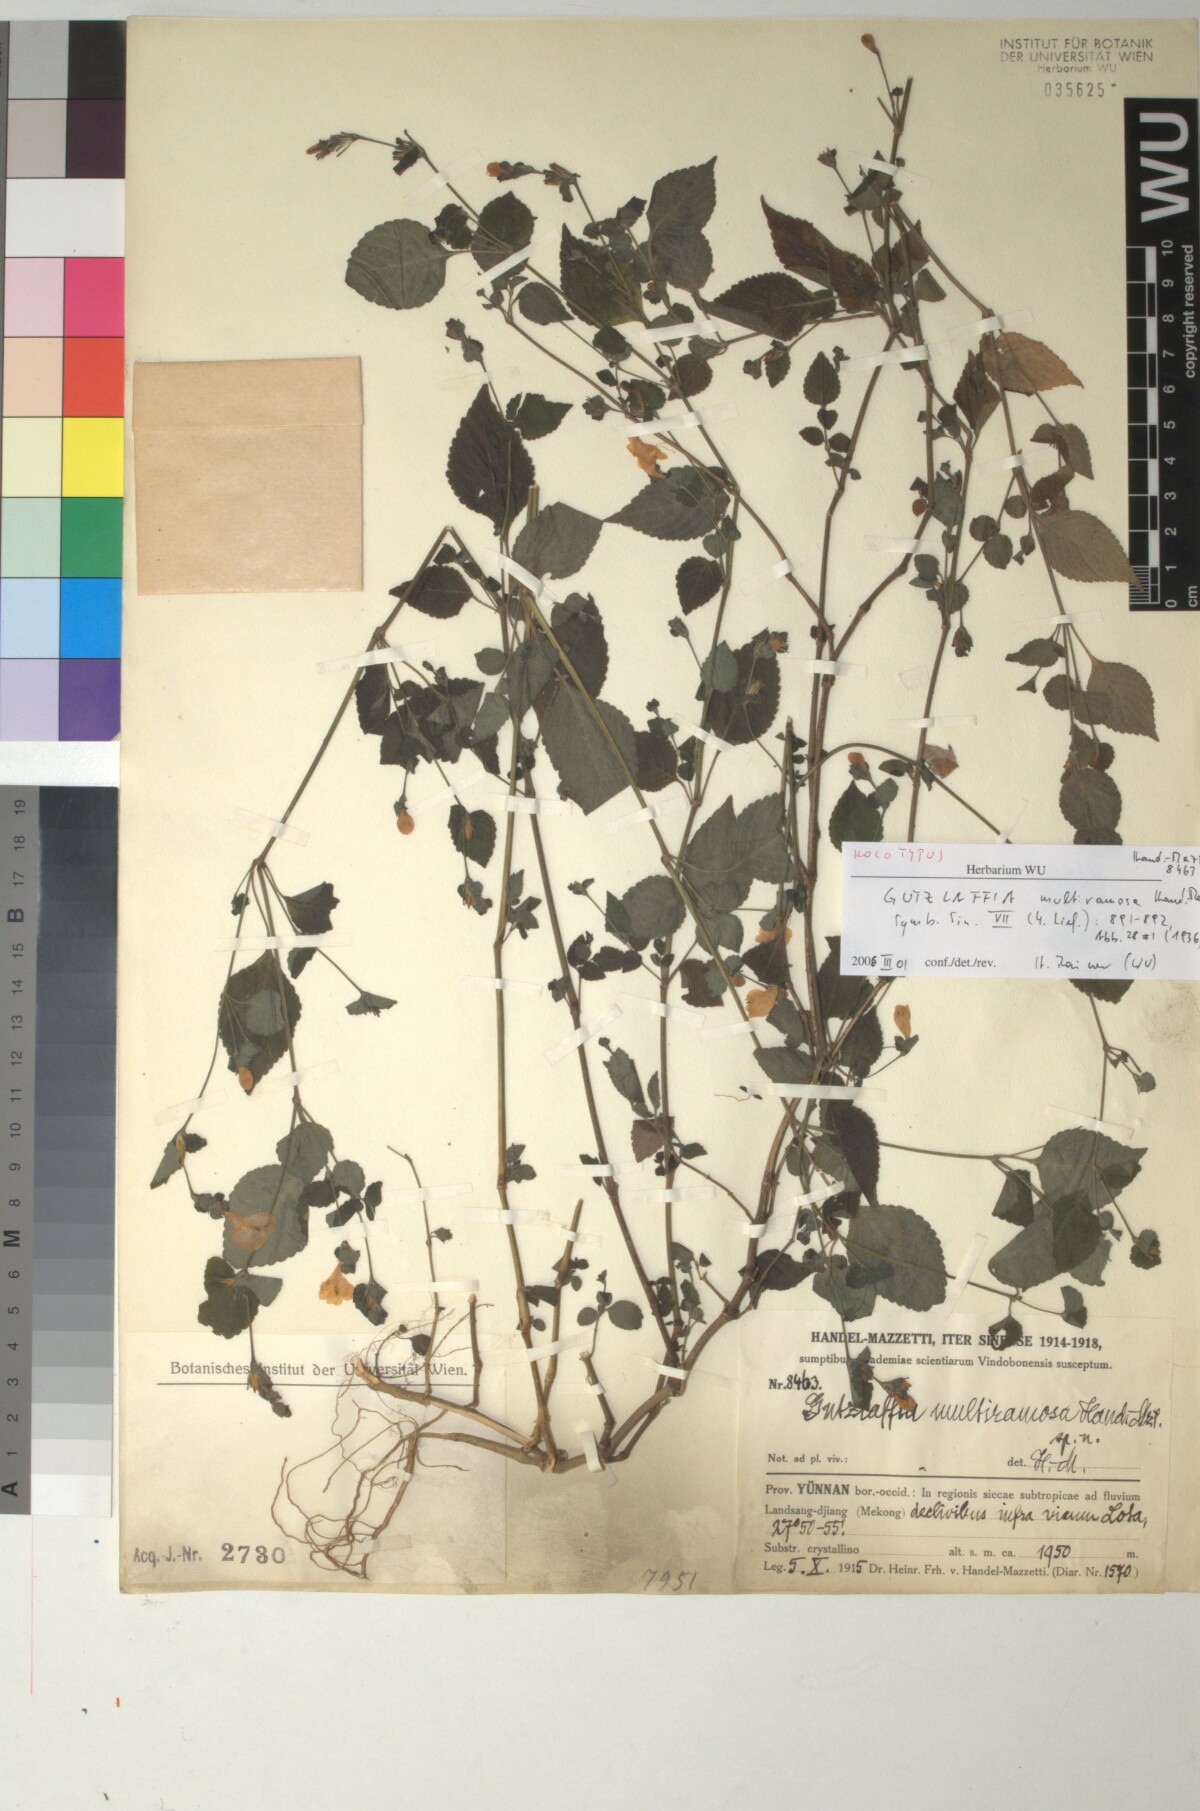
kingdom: Plantae
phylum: Tracheophyta
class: Magnoliopsida
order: Lamiales
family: Acanthaceae
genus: Strobilanthes
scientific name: Strobilanthes henryi
